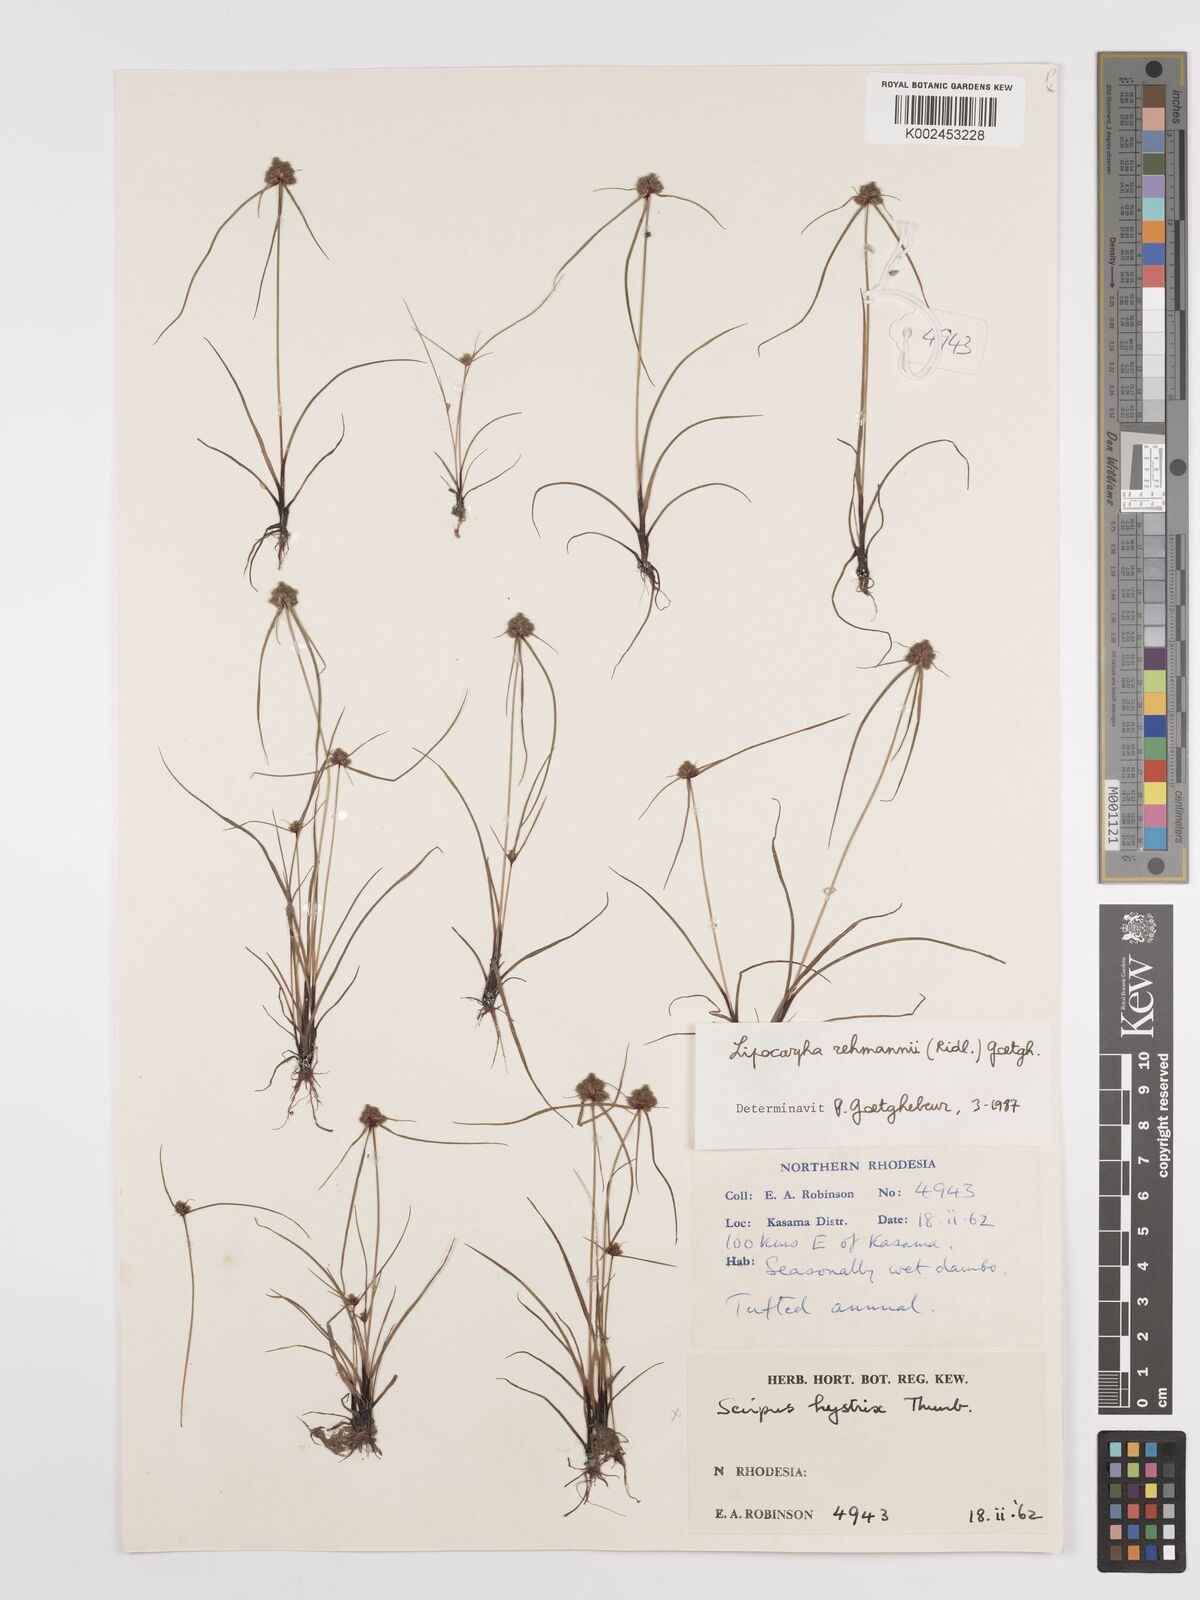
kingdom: Plantae
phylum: Tracheophyta
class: Liliopsida
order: Poales
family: Cyperaceae
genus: Cyperus
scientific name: Cyperus sanguinolentus
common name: Purpleglume flatsedge
